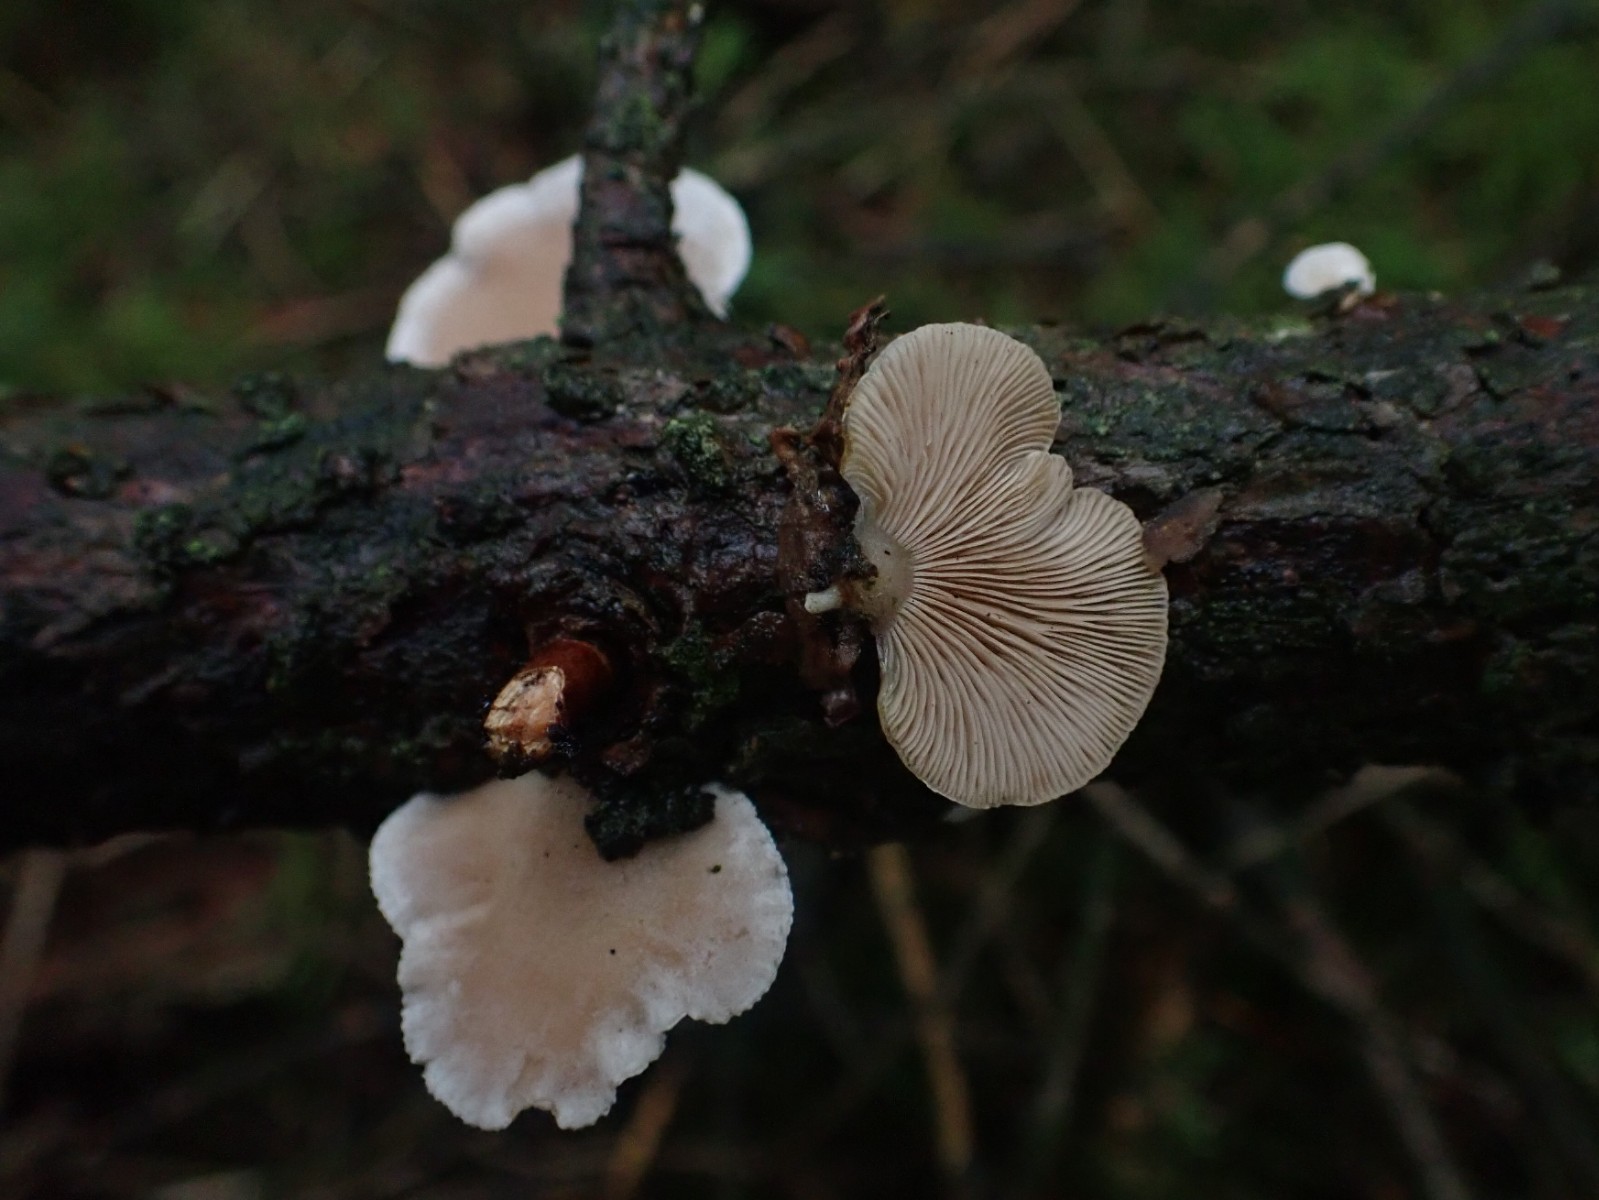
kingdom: Fungi
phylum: Basidiomycota
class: Agaricomycetes
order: Agaricales
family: Mycenaceae
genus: Panellus
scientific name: Panellus mitis
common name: mild epaulethat
